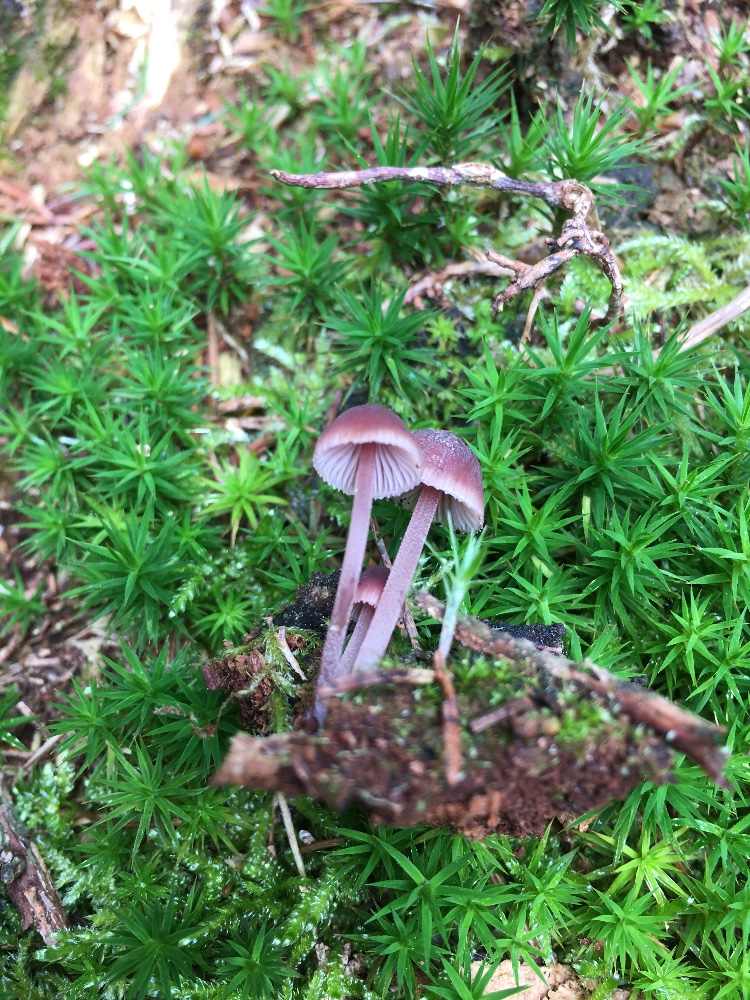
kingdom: Fungi
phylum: Basidiomycota
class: Agaricomycetes
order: Agaricales
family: Mycenaceae
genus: Mycena
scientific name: Mycena haematopus
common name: blødende huesvamp
